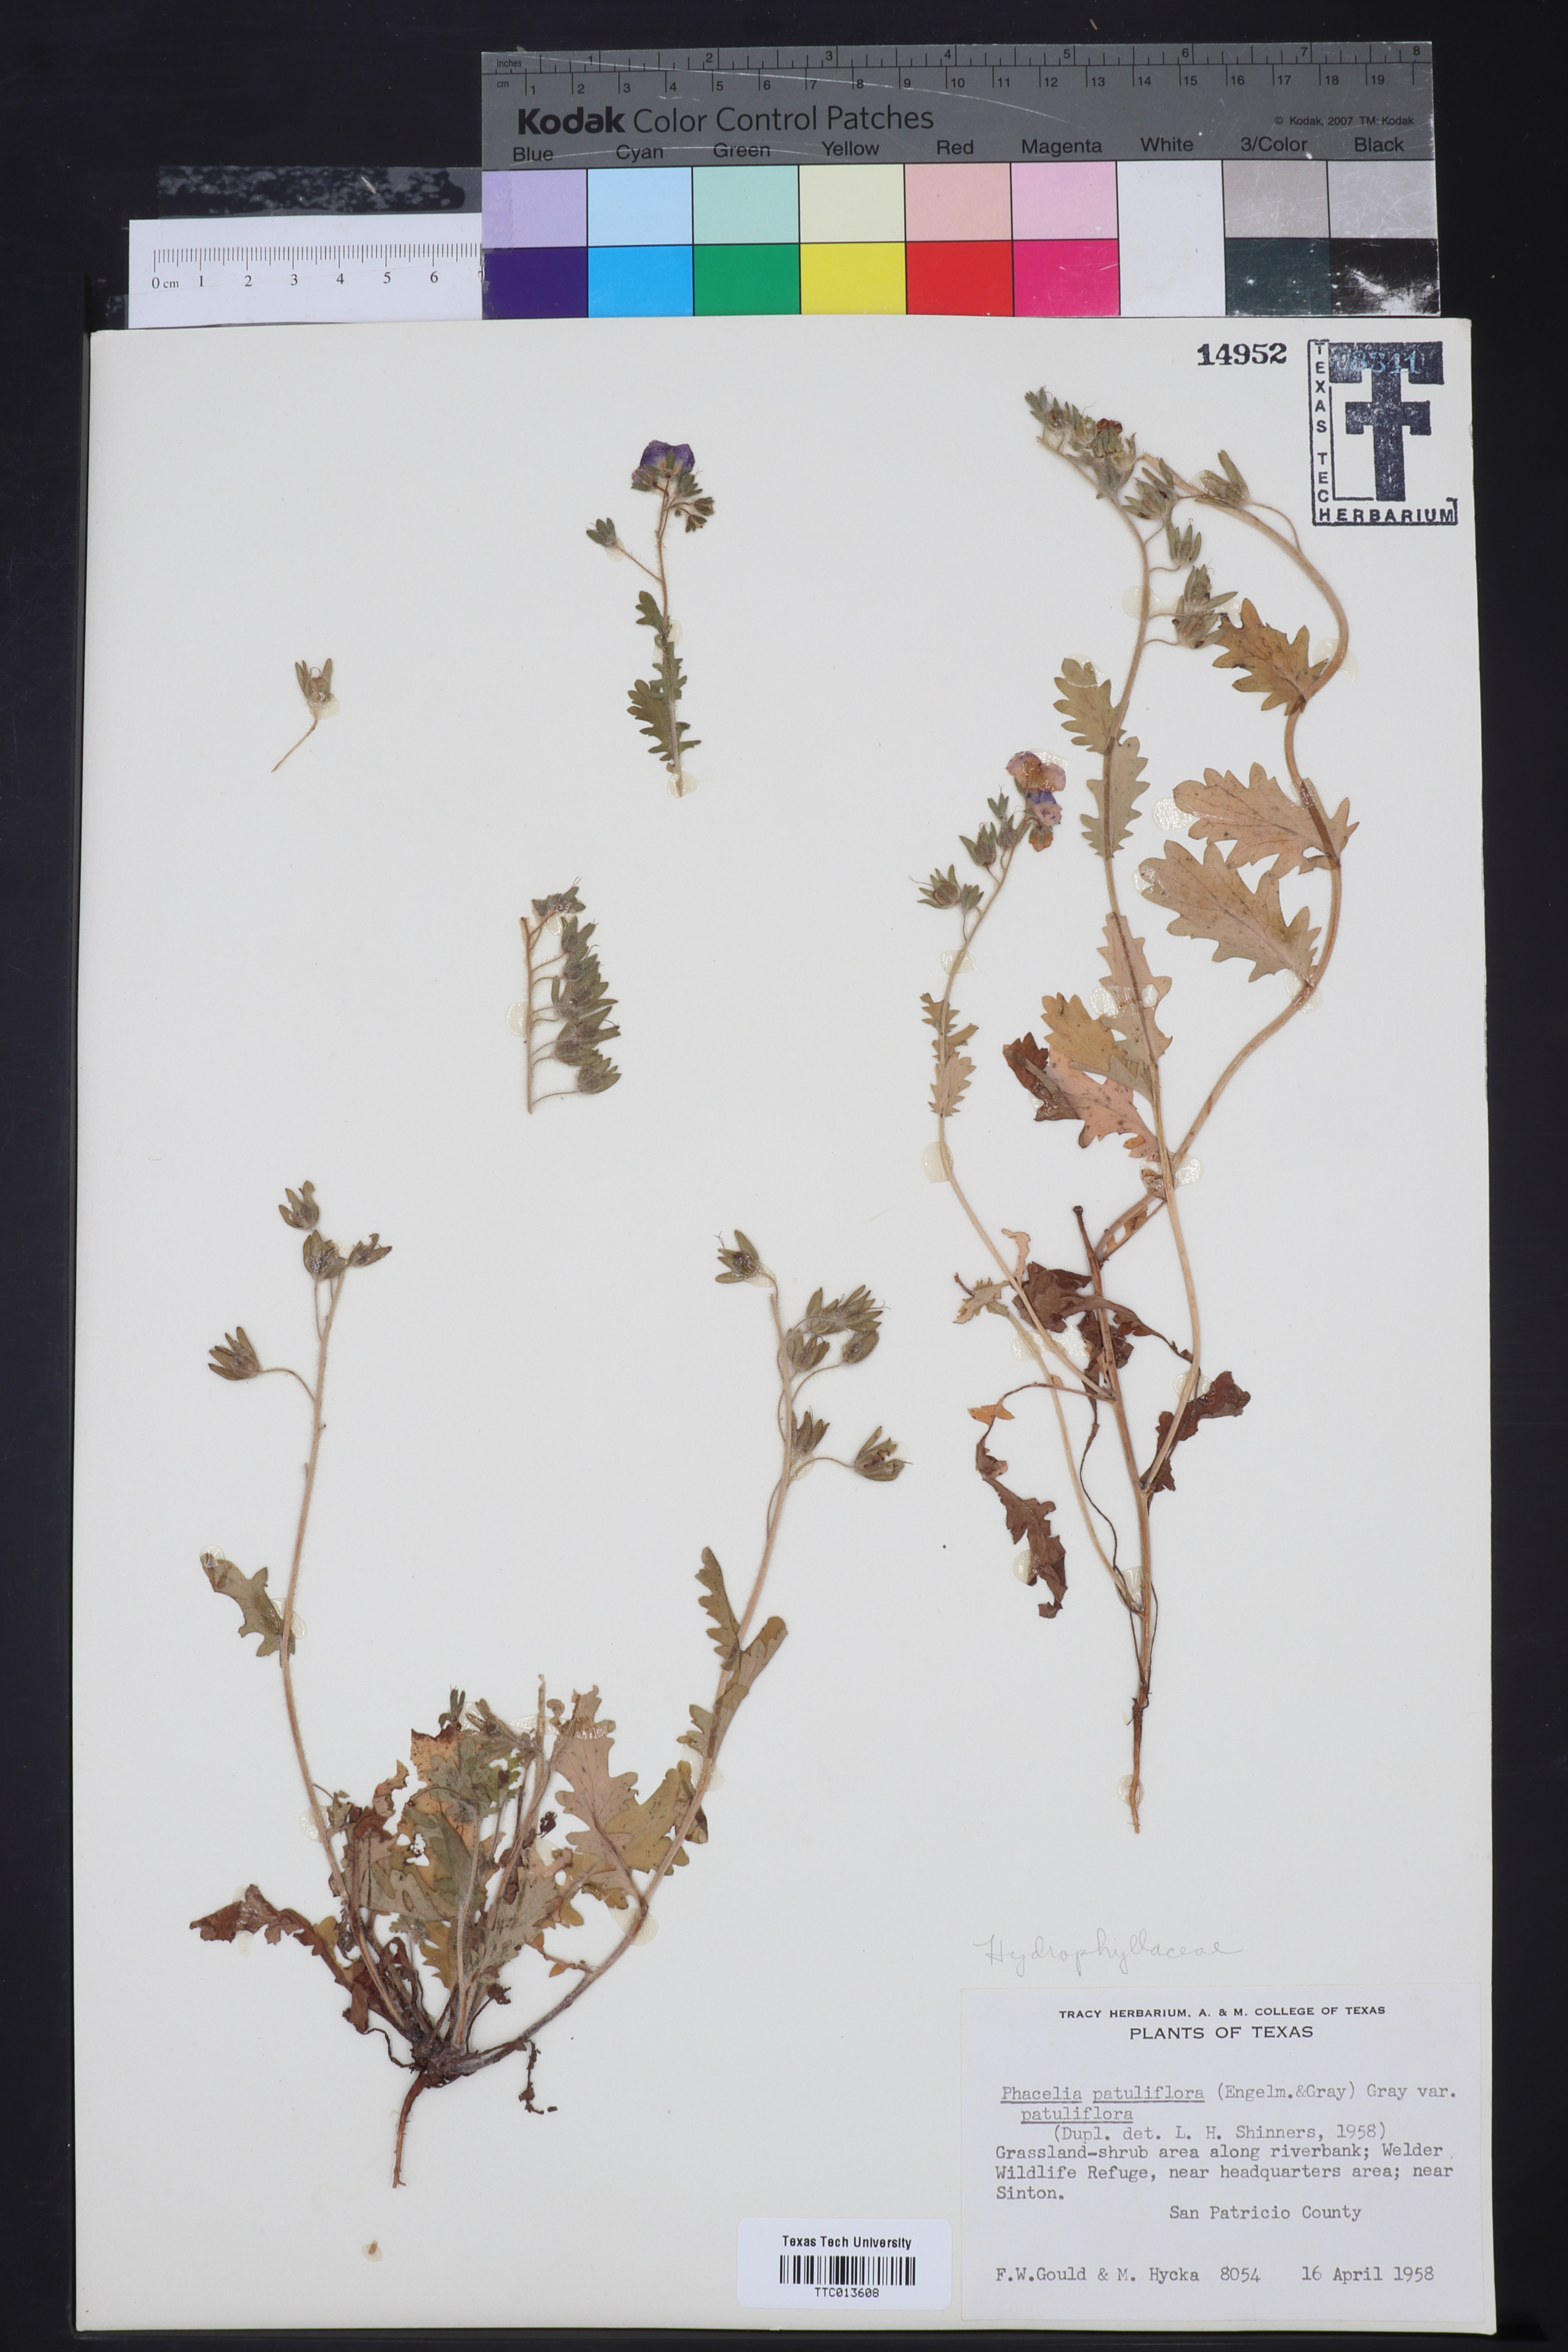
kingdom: Plantae
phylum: Tracheophyta
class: Magnoliopsida
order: Boraginales
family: Hydrophyllaceae
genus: Phacelia
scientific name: Phacelia patuliflora
